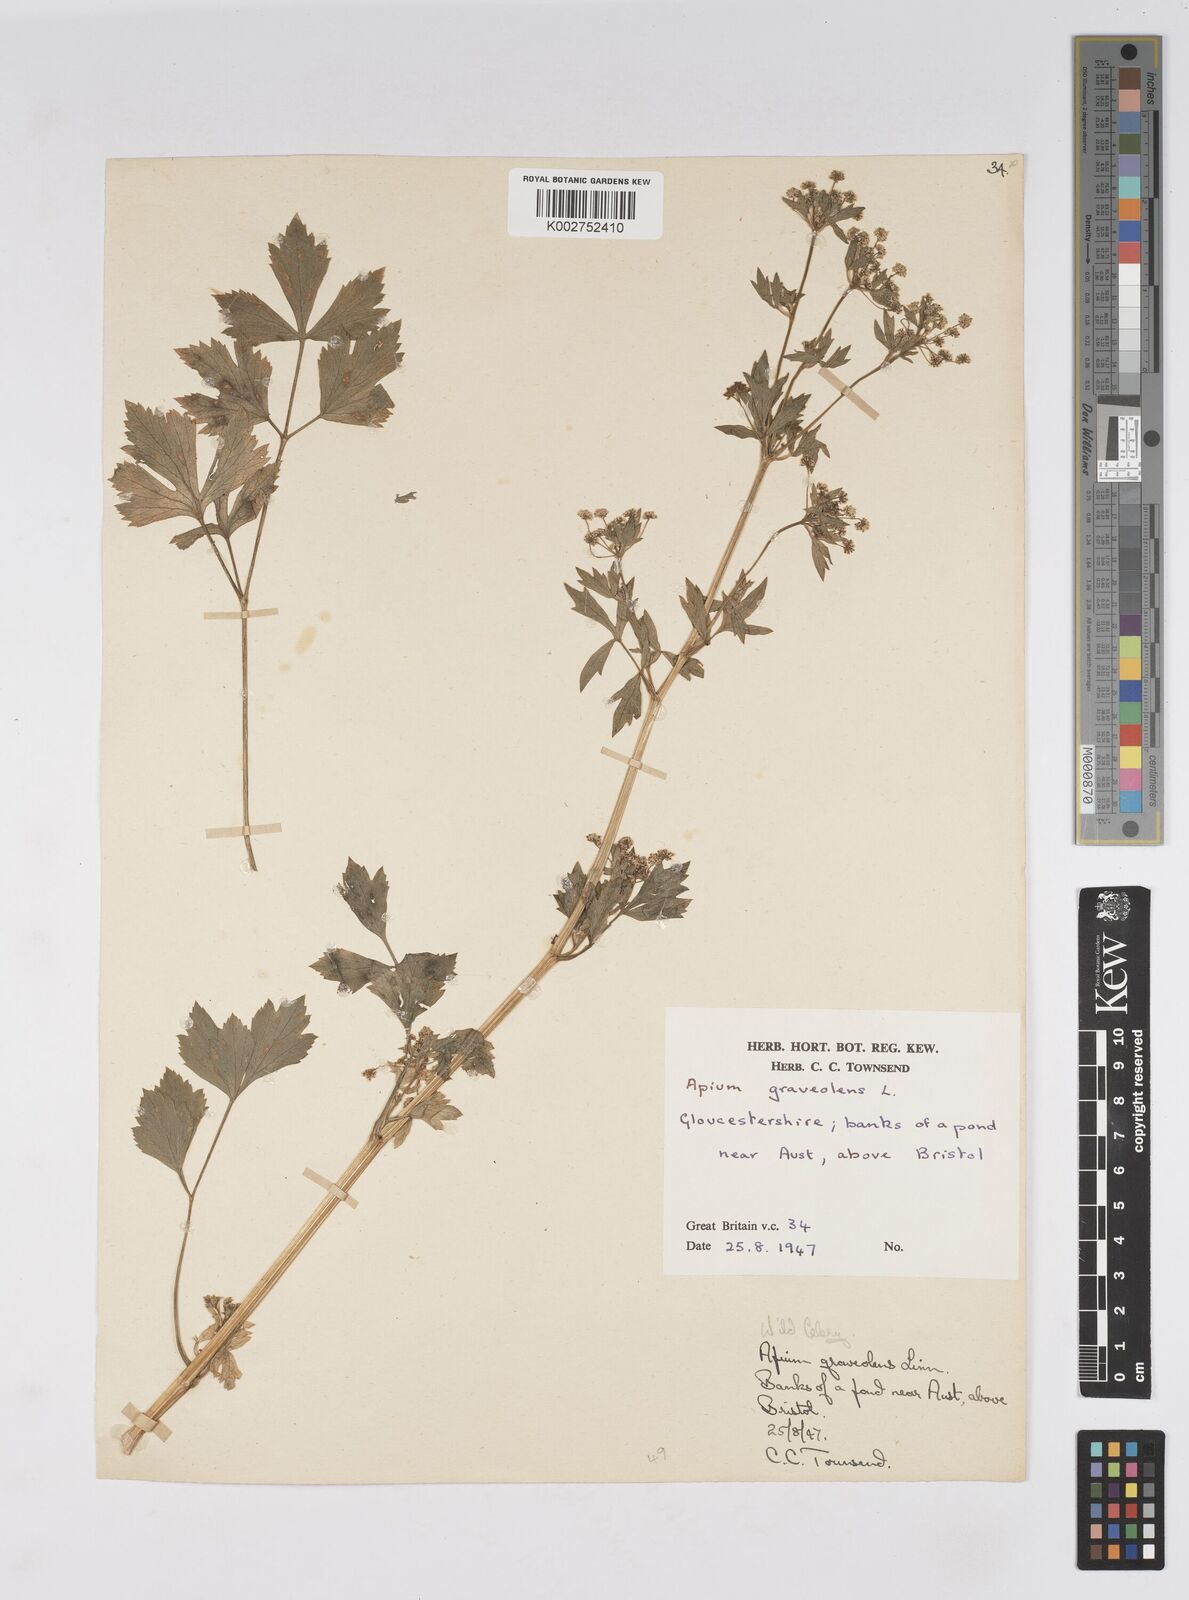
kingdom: Plantae
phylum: Tracheophyta
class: Magnoliopsida
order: Apiales
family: Apiaceae
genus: Apium
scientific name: Apium graveolens
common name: Wild celery
